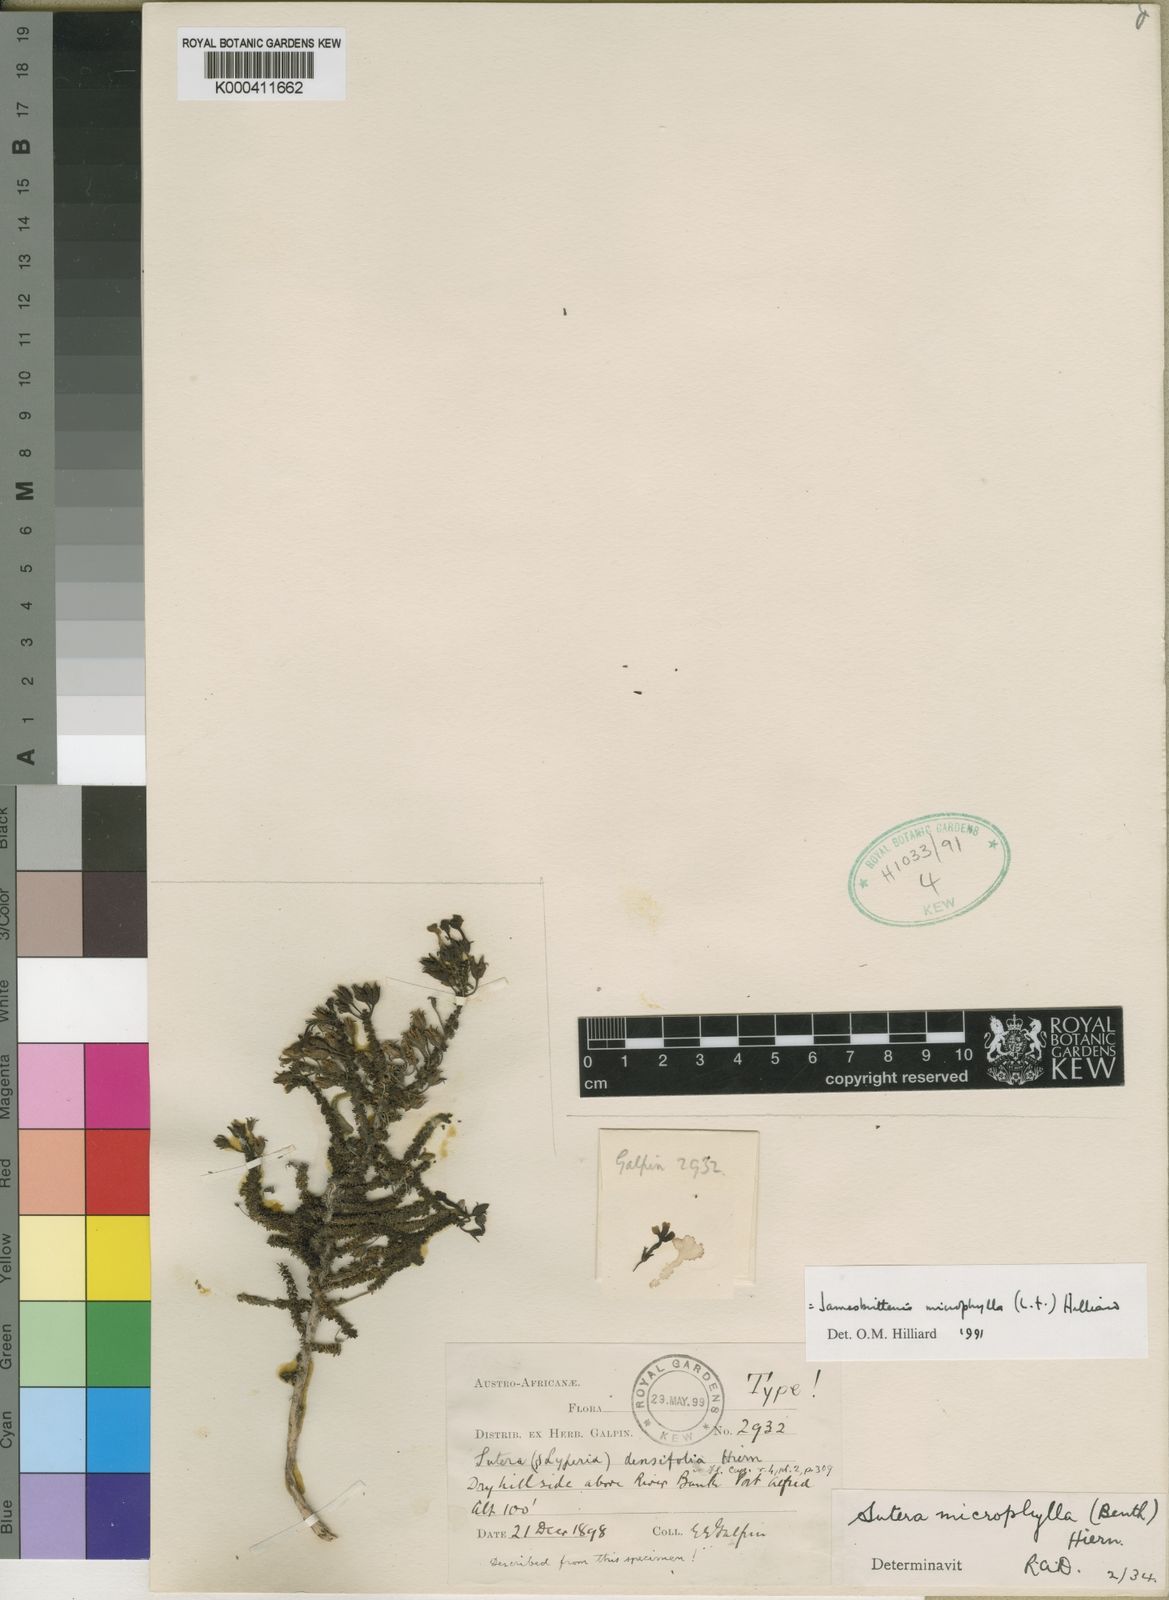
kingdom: Plantae
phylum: Tracheophyta
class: Magnoliopsida
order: Lamiales
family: Scrophulariaceae
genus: Jamesbrittenia
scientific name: Jamesbrittenia microphylla
